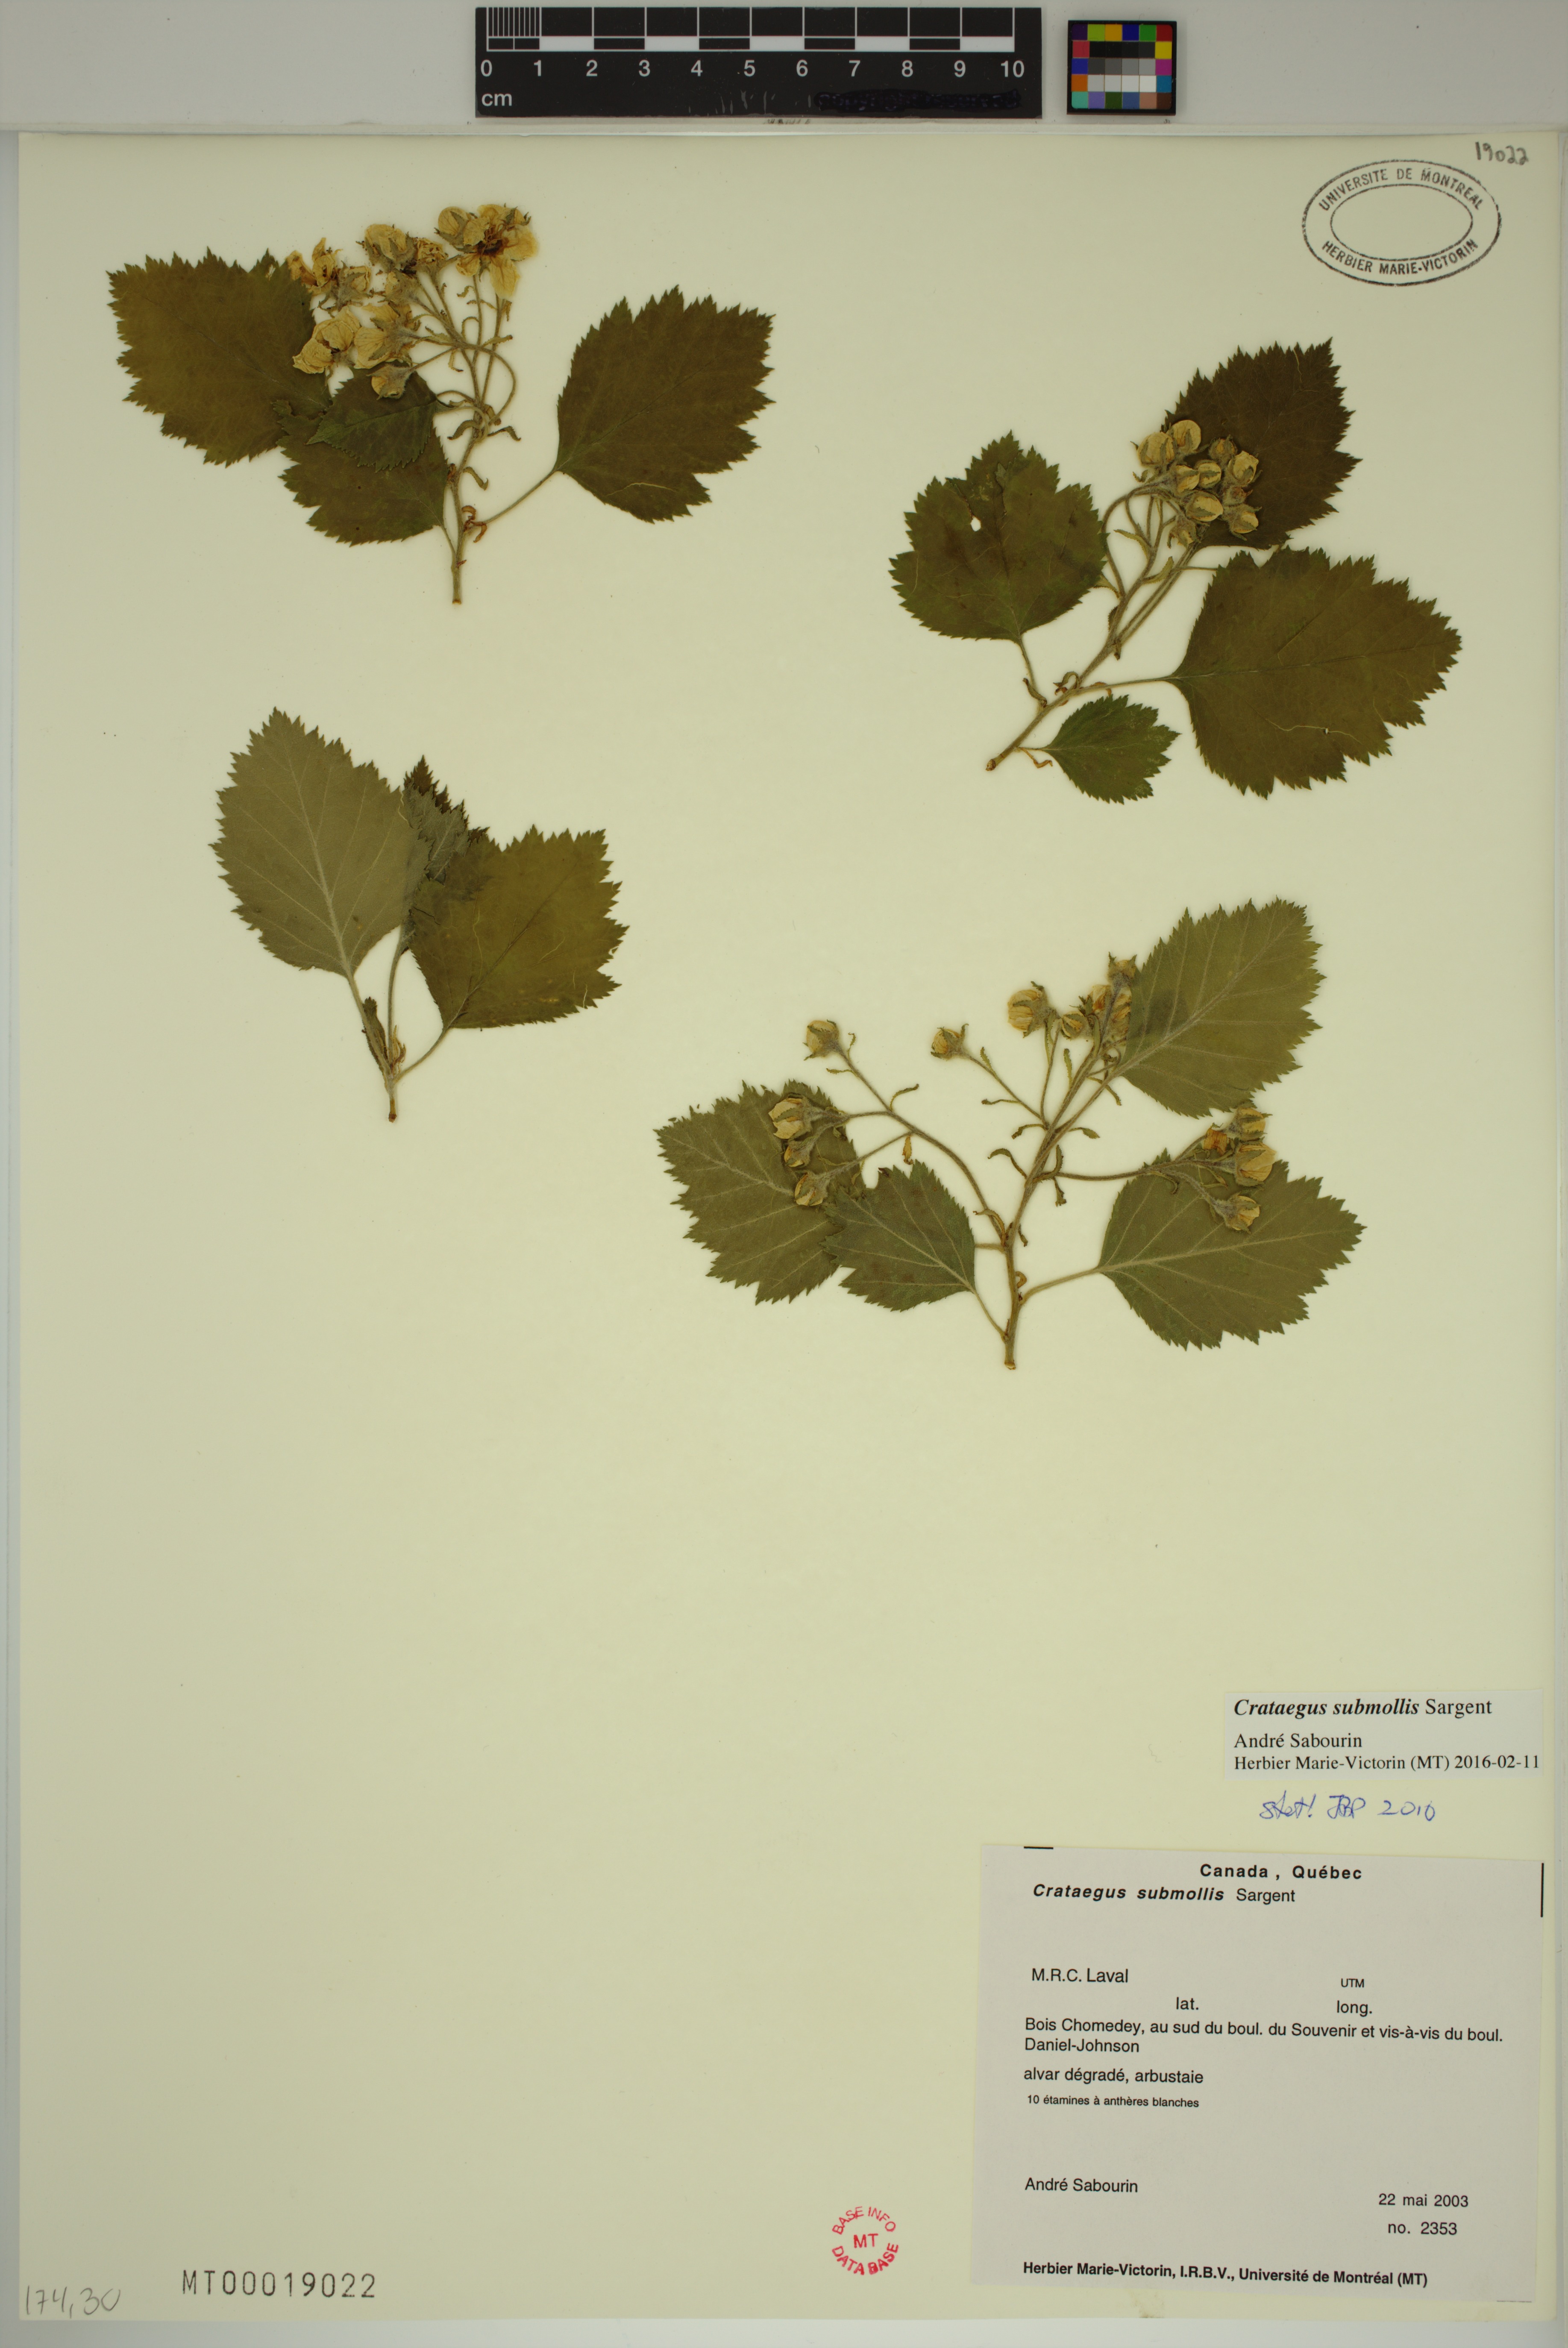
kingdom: Plantae
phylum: Tracheophyta
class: Magnoliopsida
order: Rosales
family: Rosaceae
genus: Crataegus
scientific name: Crataegus submollis
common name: Hairy cockspurthorn
